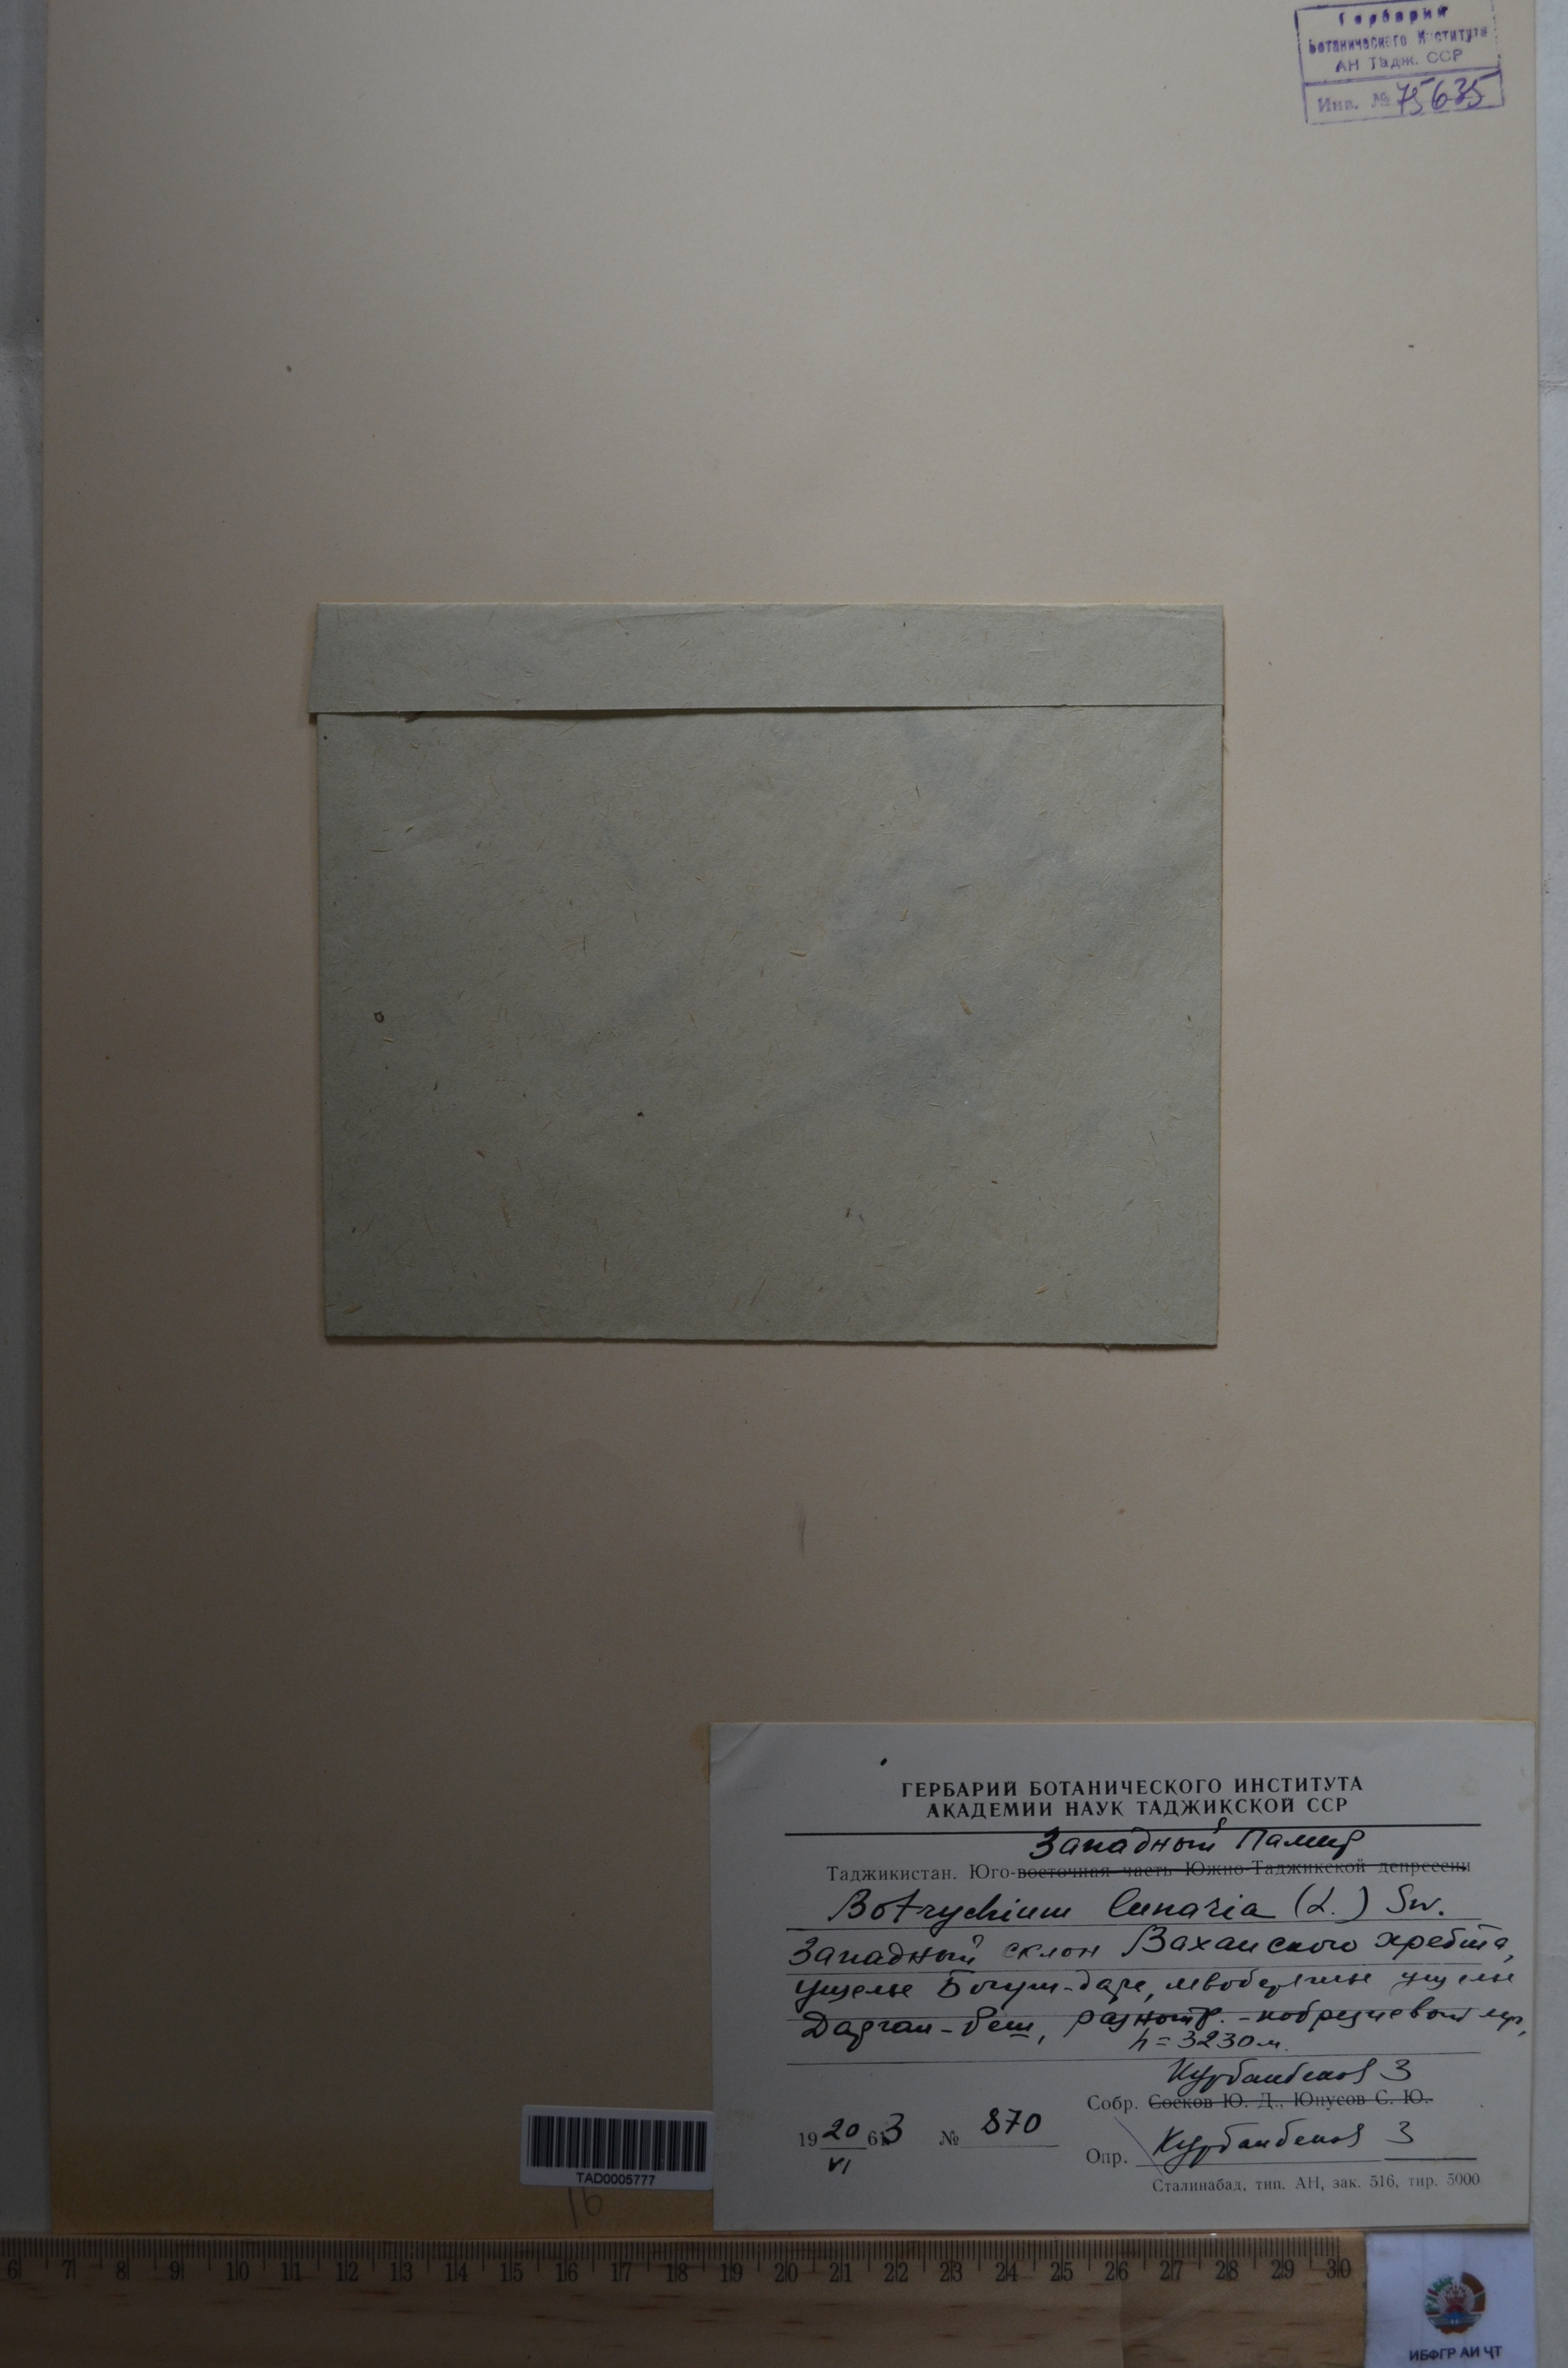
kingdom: Plantae
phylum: Tracheophyta
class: Polypodiopsida
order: Ophioglossales
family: Ophioglossaceae
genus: Botrychium
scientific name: Botrychium lunaria
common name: Moonwort
